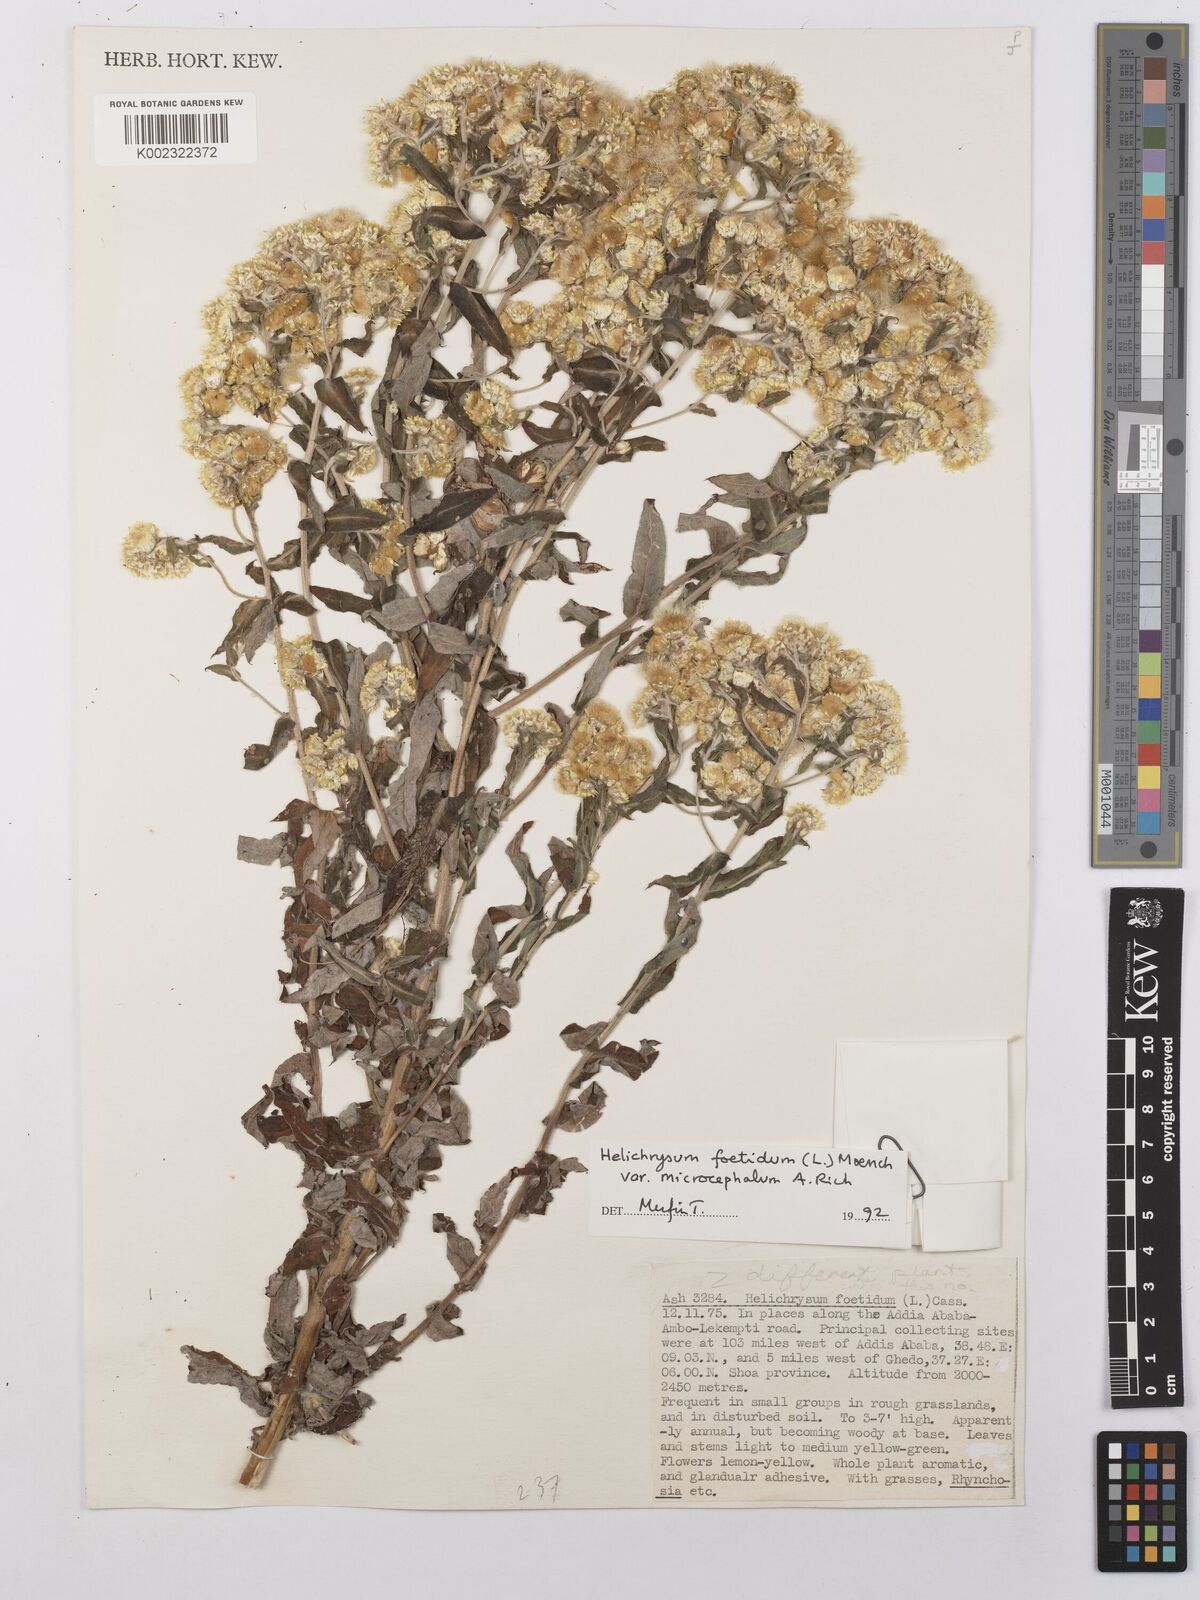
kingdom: Plantae
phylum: Tracheophyta
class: Magnoliopsida
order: Asterales
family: Asteraceae
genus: Helichrysum
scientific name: Helichrysum foetidum
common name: Stinking everlasting
